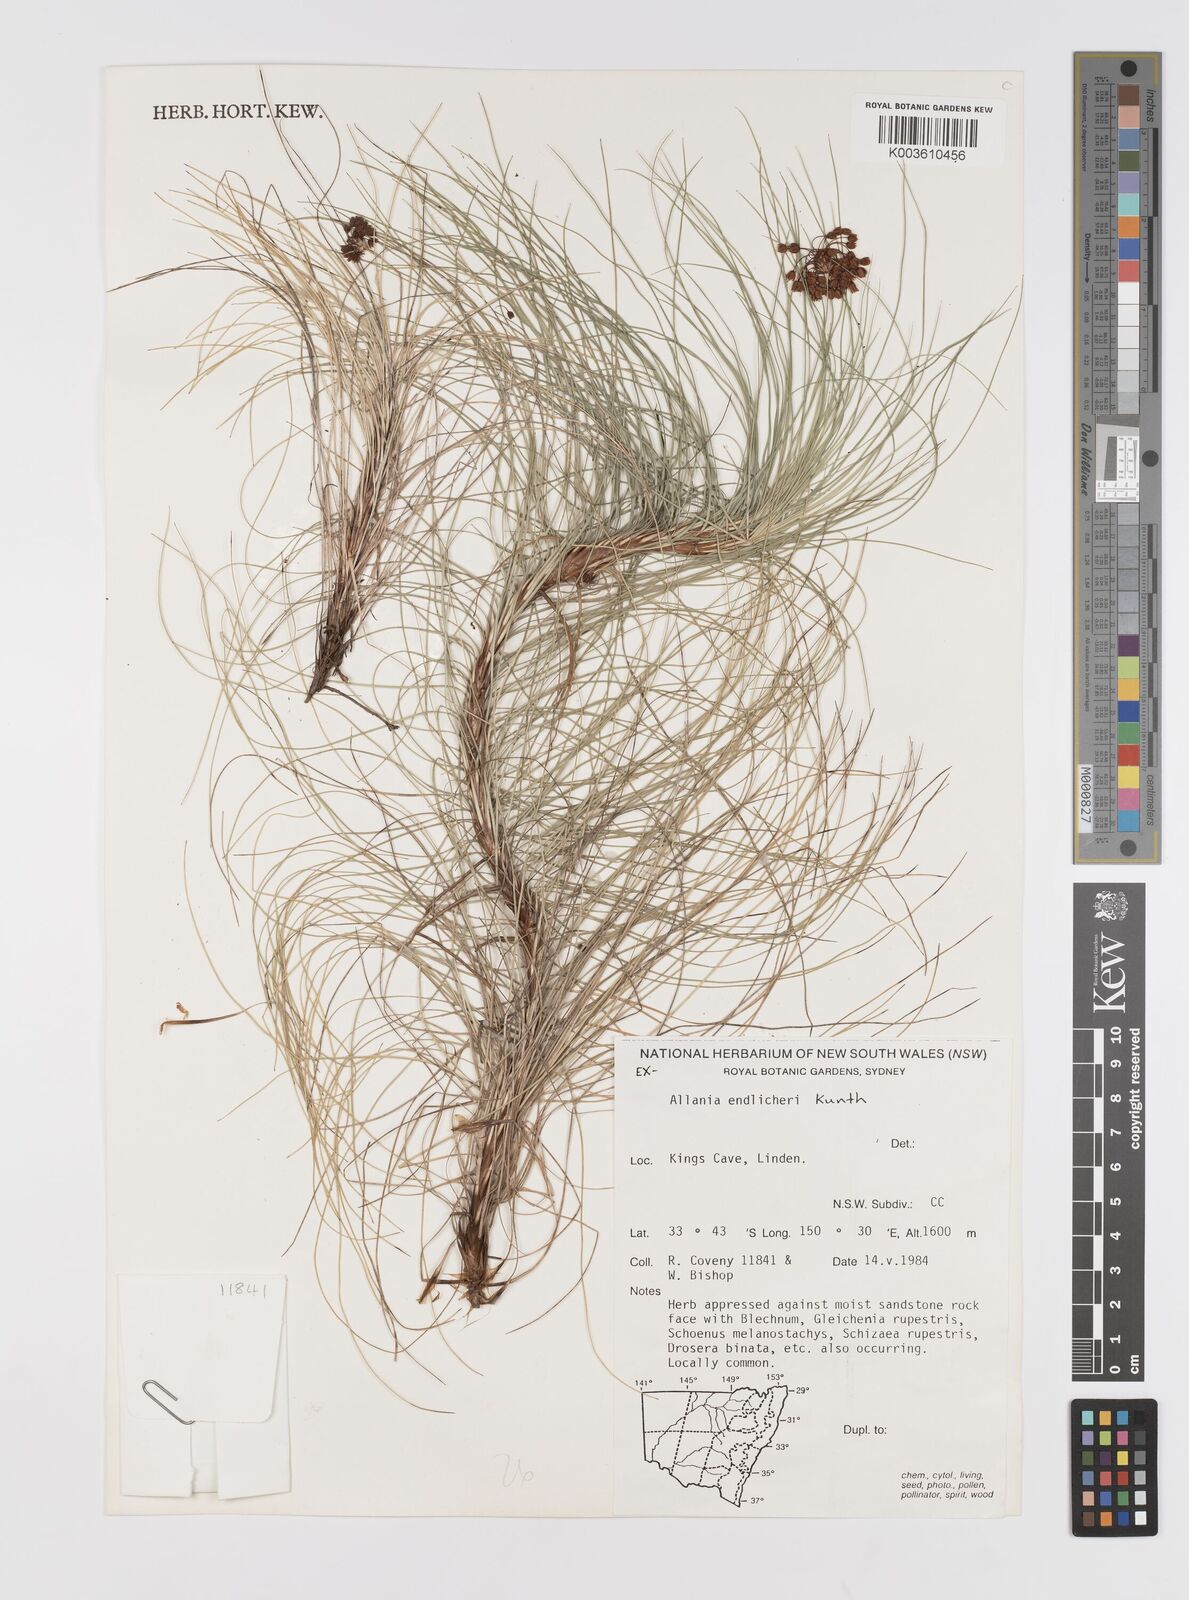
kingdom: Plantae
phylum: Tracheophyta
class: Liliopsida
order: Asparagales
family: Boryaceae
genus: Alania
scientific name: Alania cunninghamii
